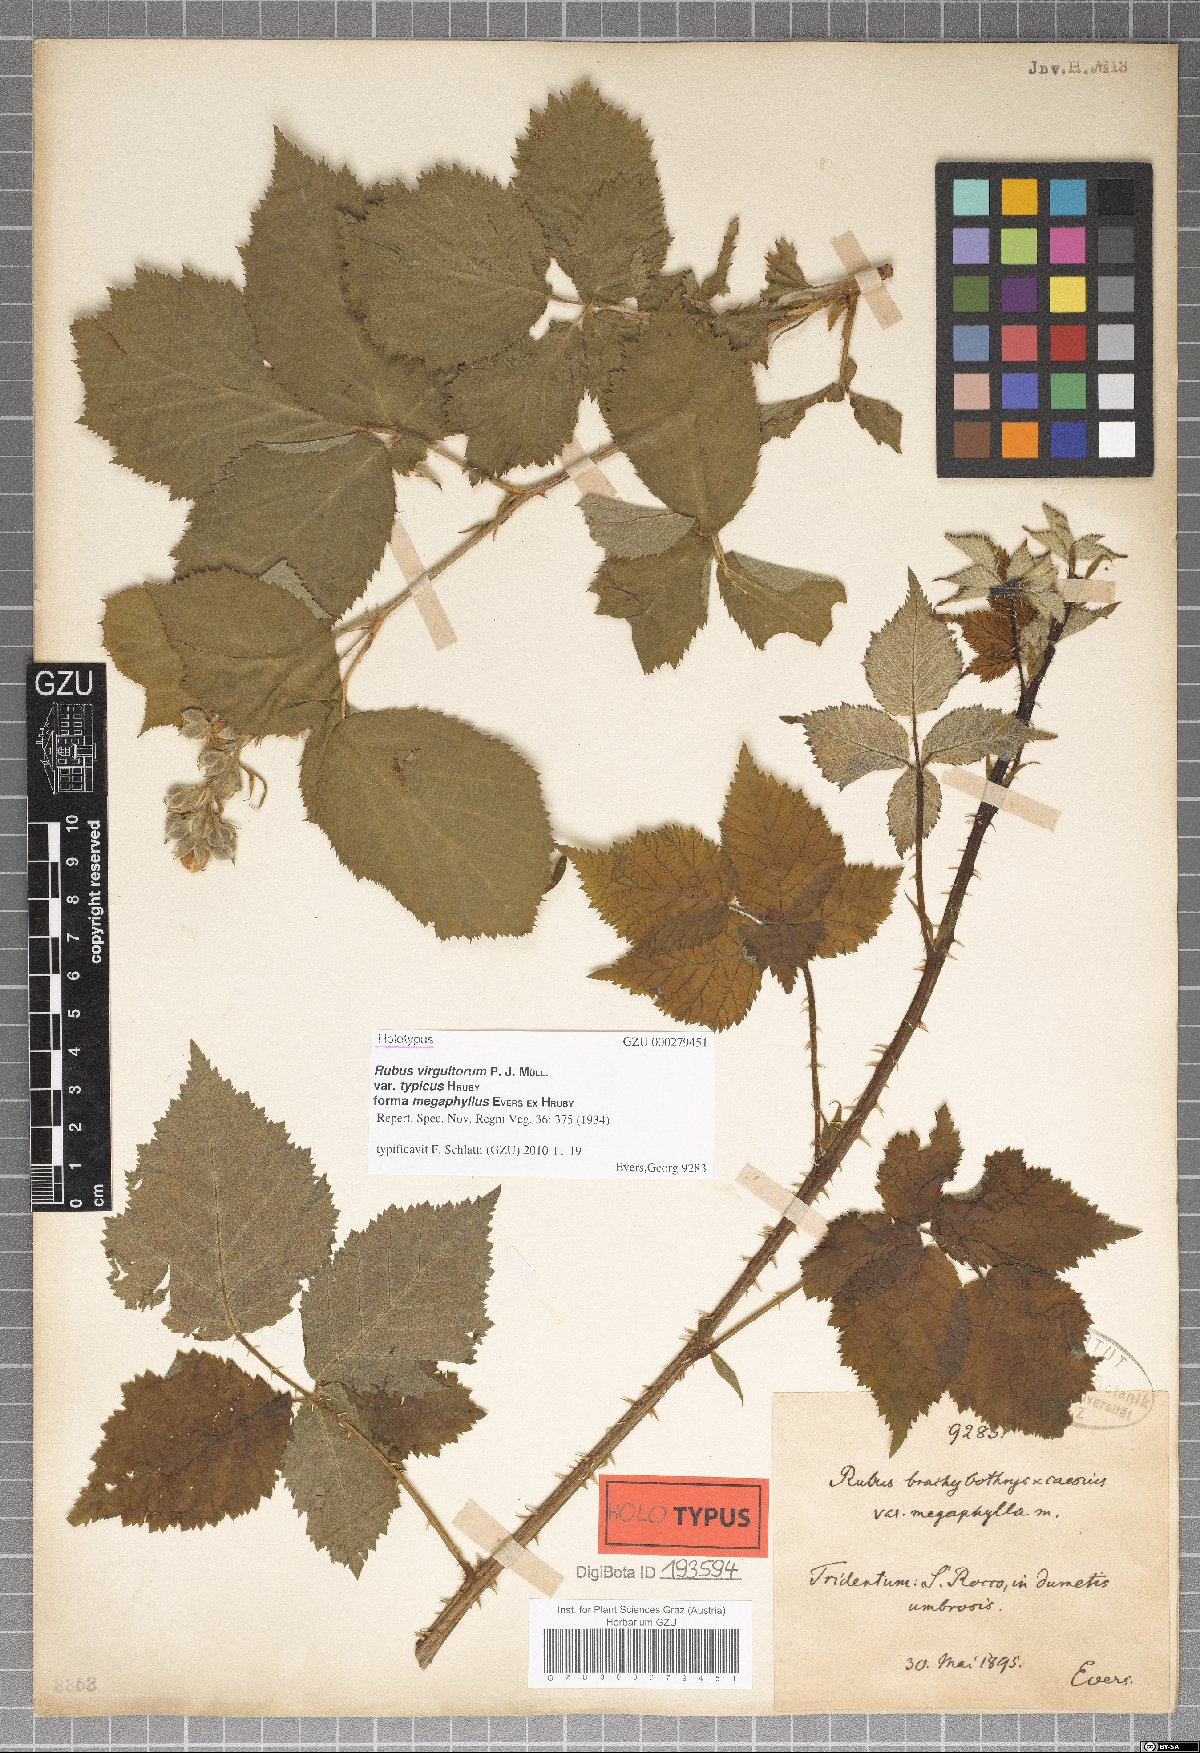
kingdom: Plantae
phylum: Tracheophyta
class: Magnoliopsida
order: Rosales
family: Rosaceae
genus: Rubus
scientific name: Rubus virgultorum
